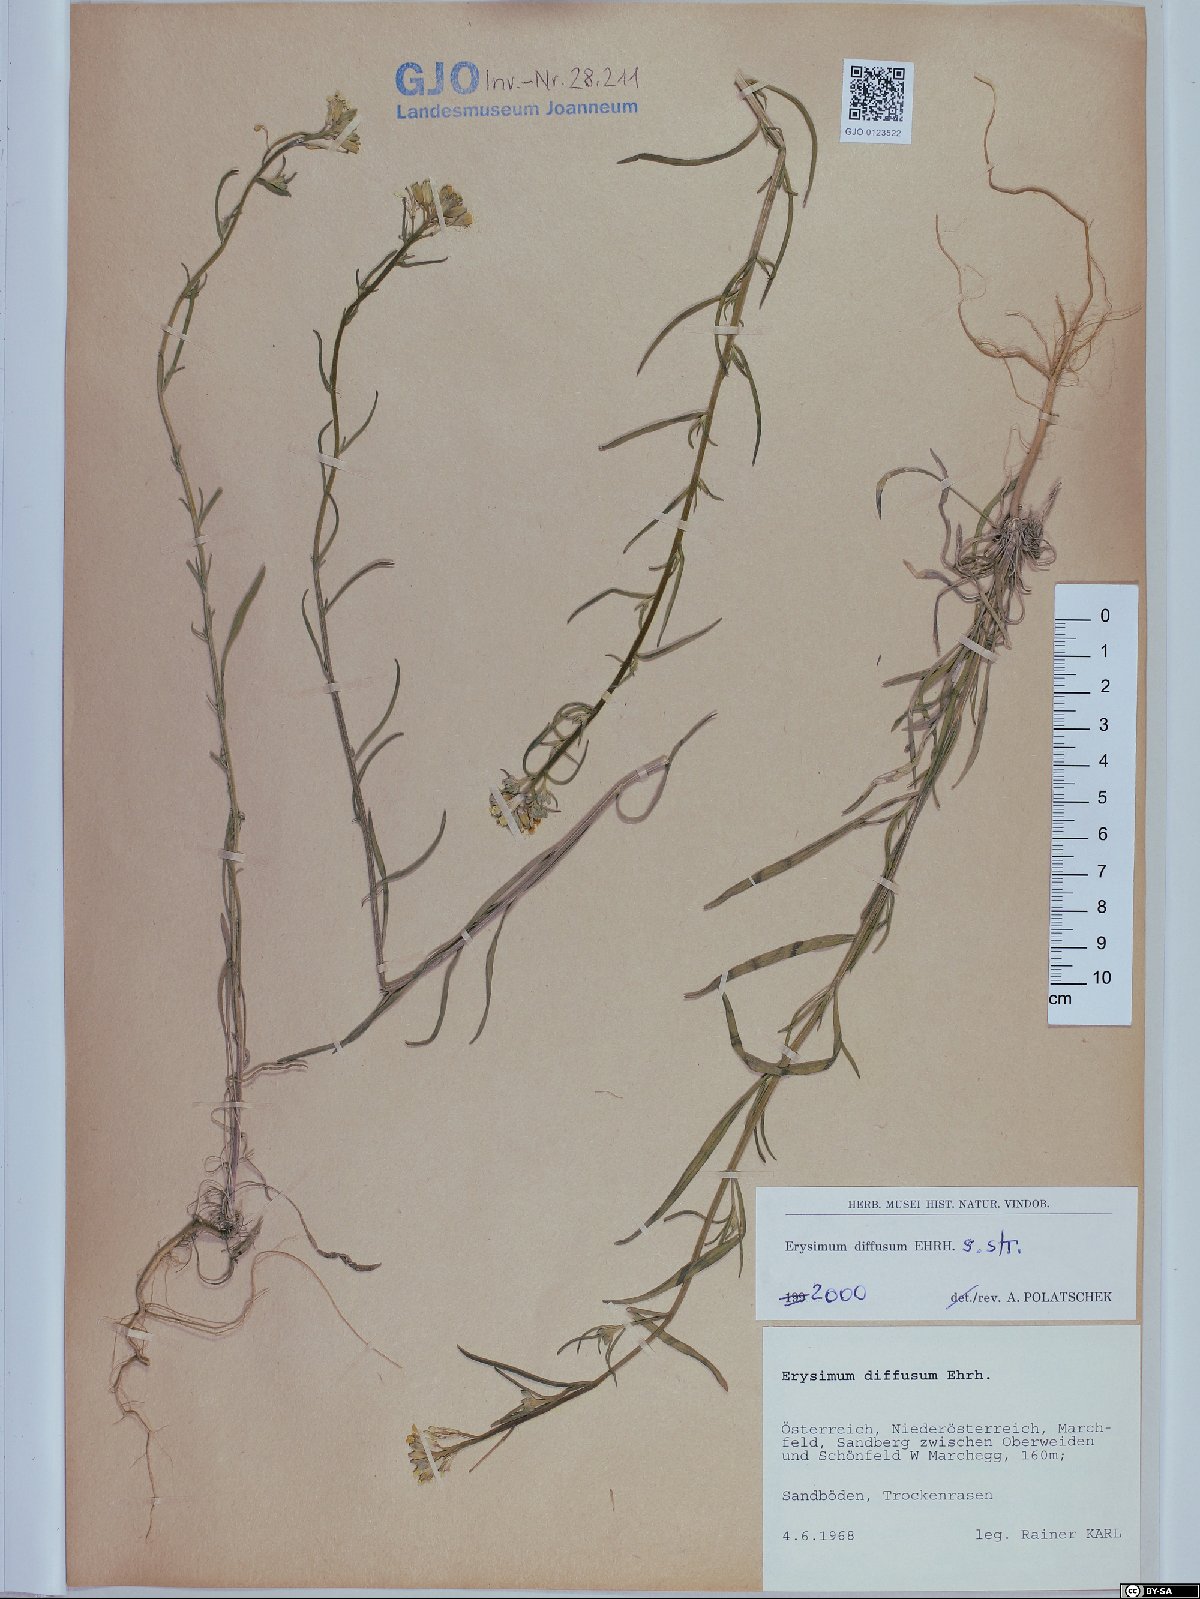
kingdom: Plantae
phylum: Tracheophyta
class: Magnoliopsida
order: Brassicales
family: Brassicaceae
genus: Erysimum
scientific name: Erysimum diffusum
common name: Diffuse wallflower
